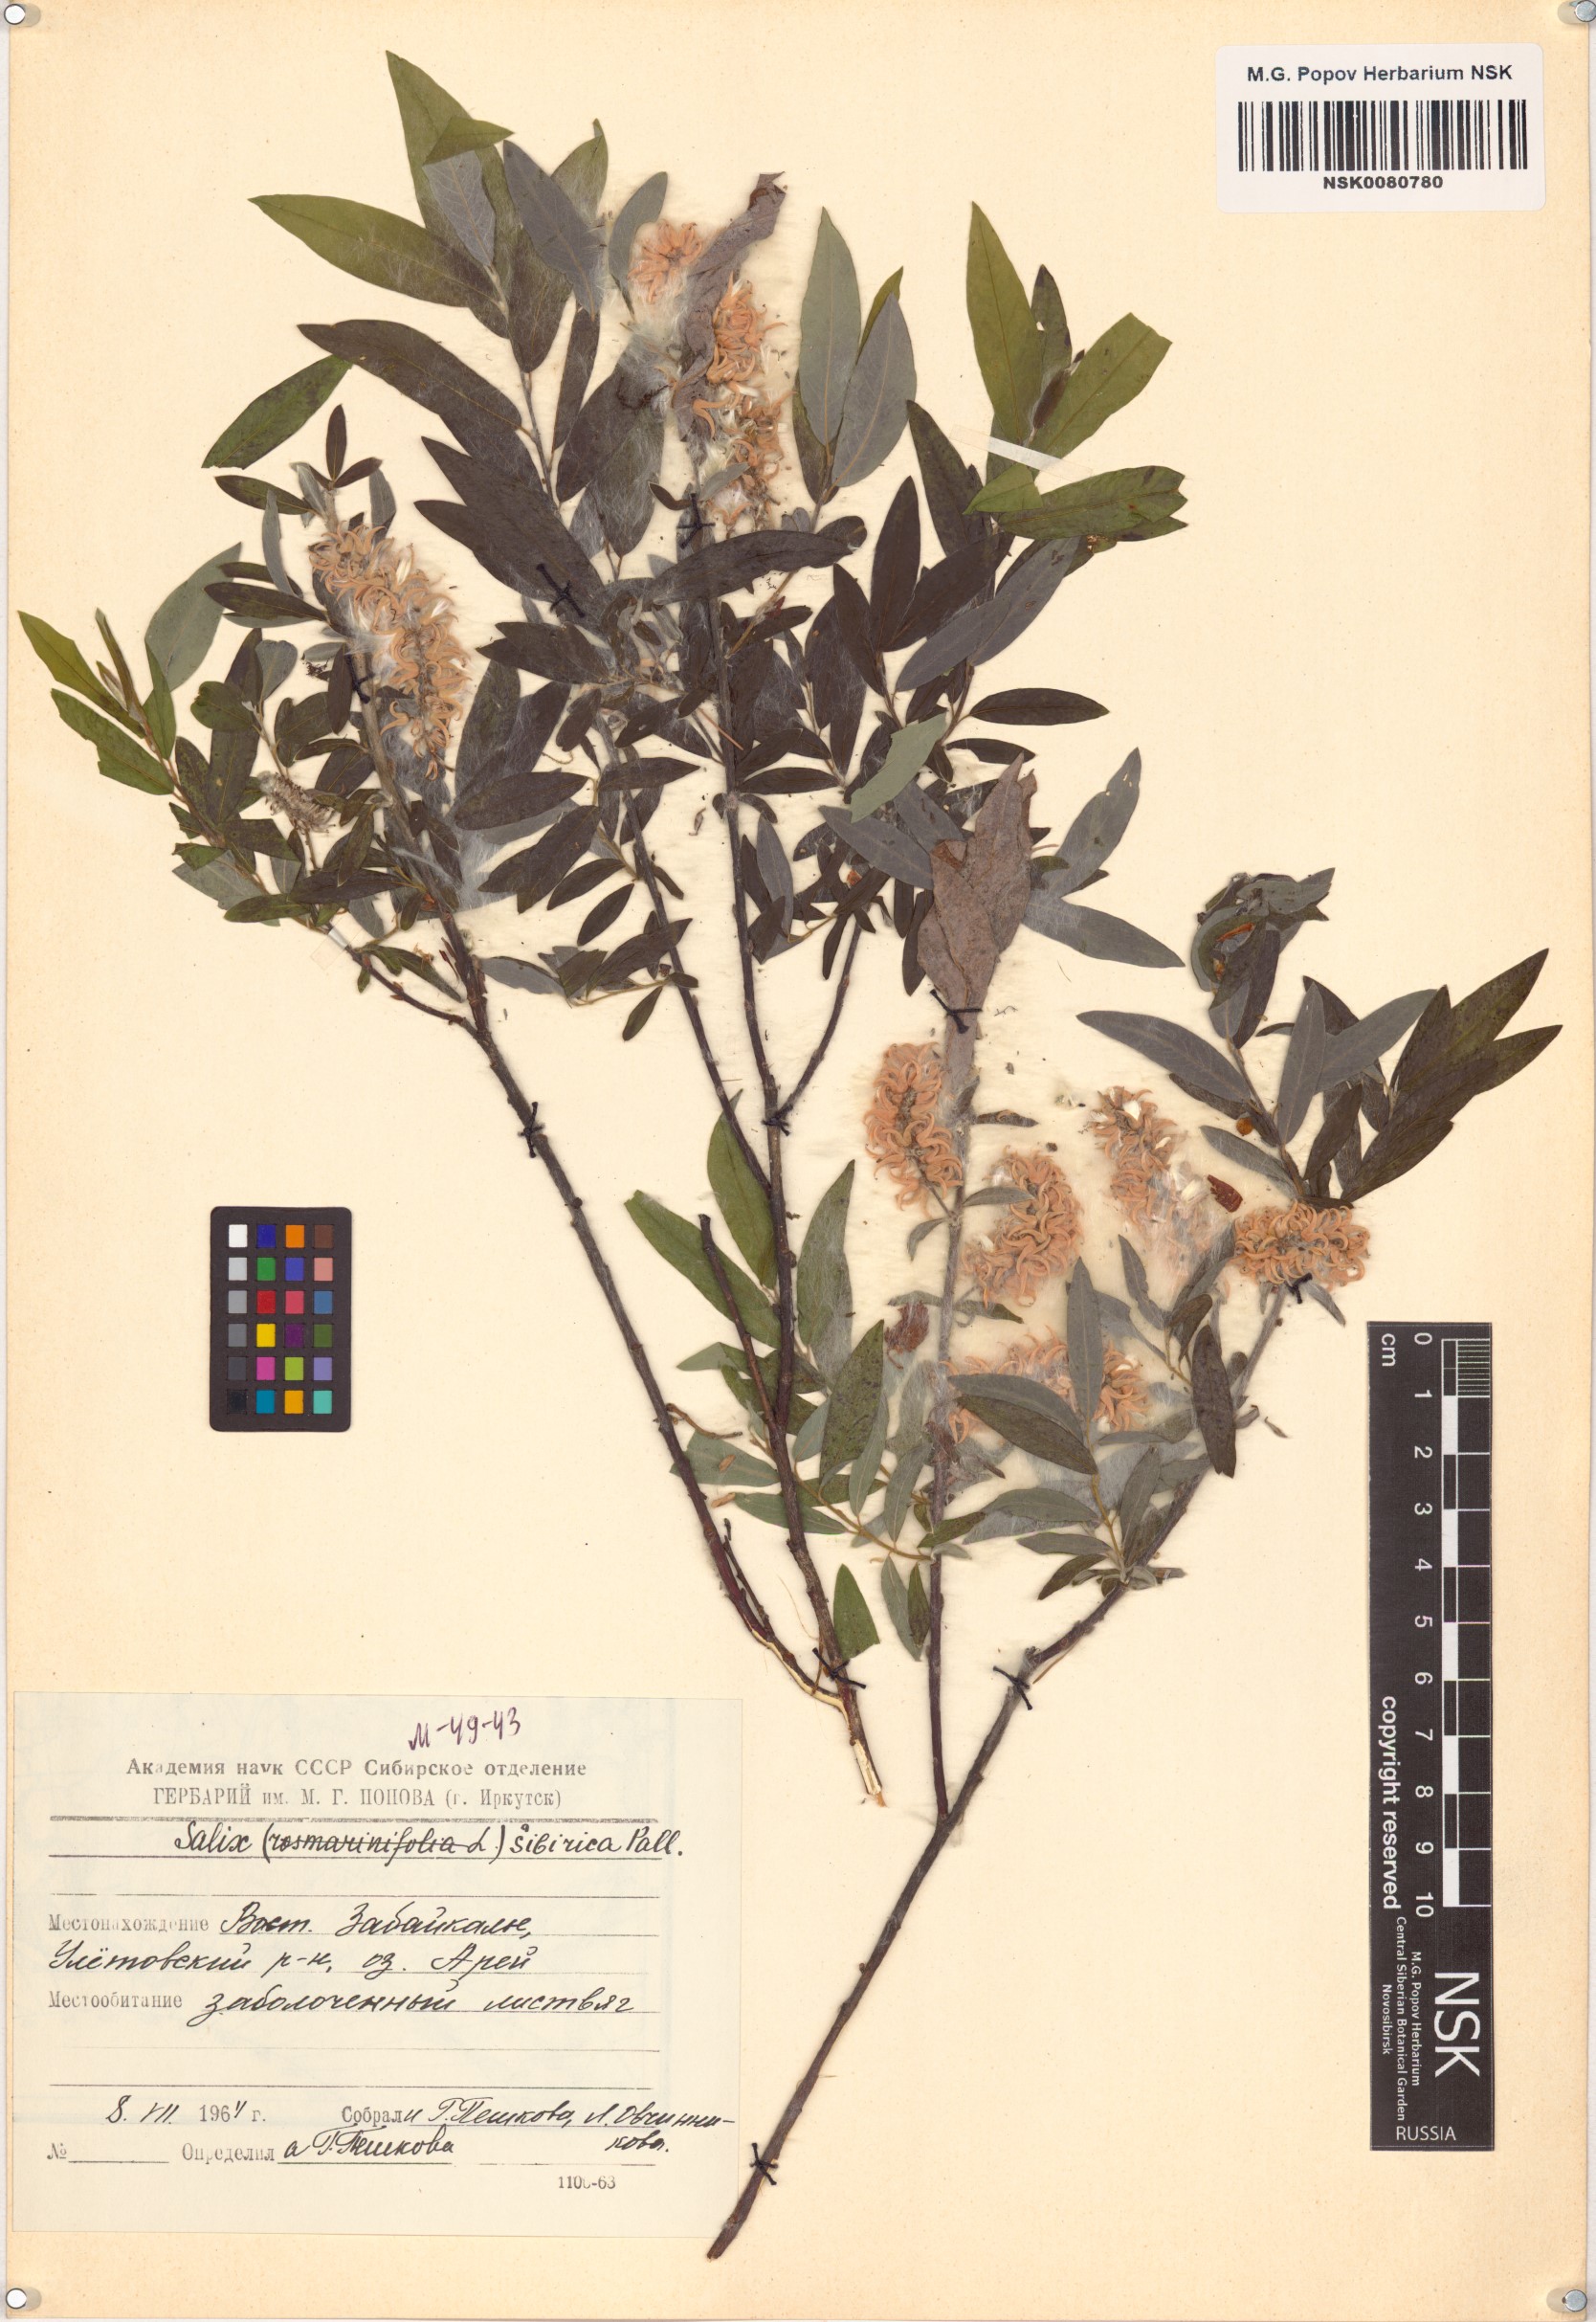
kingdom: Plantae
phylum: Tracheophyta
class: Magnoliopsida
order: Malpighiales
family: Salicaceae
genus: Salix
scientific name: Salix rosmarinifolia
